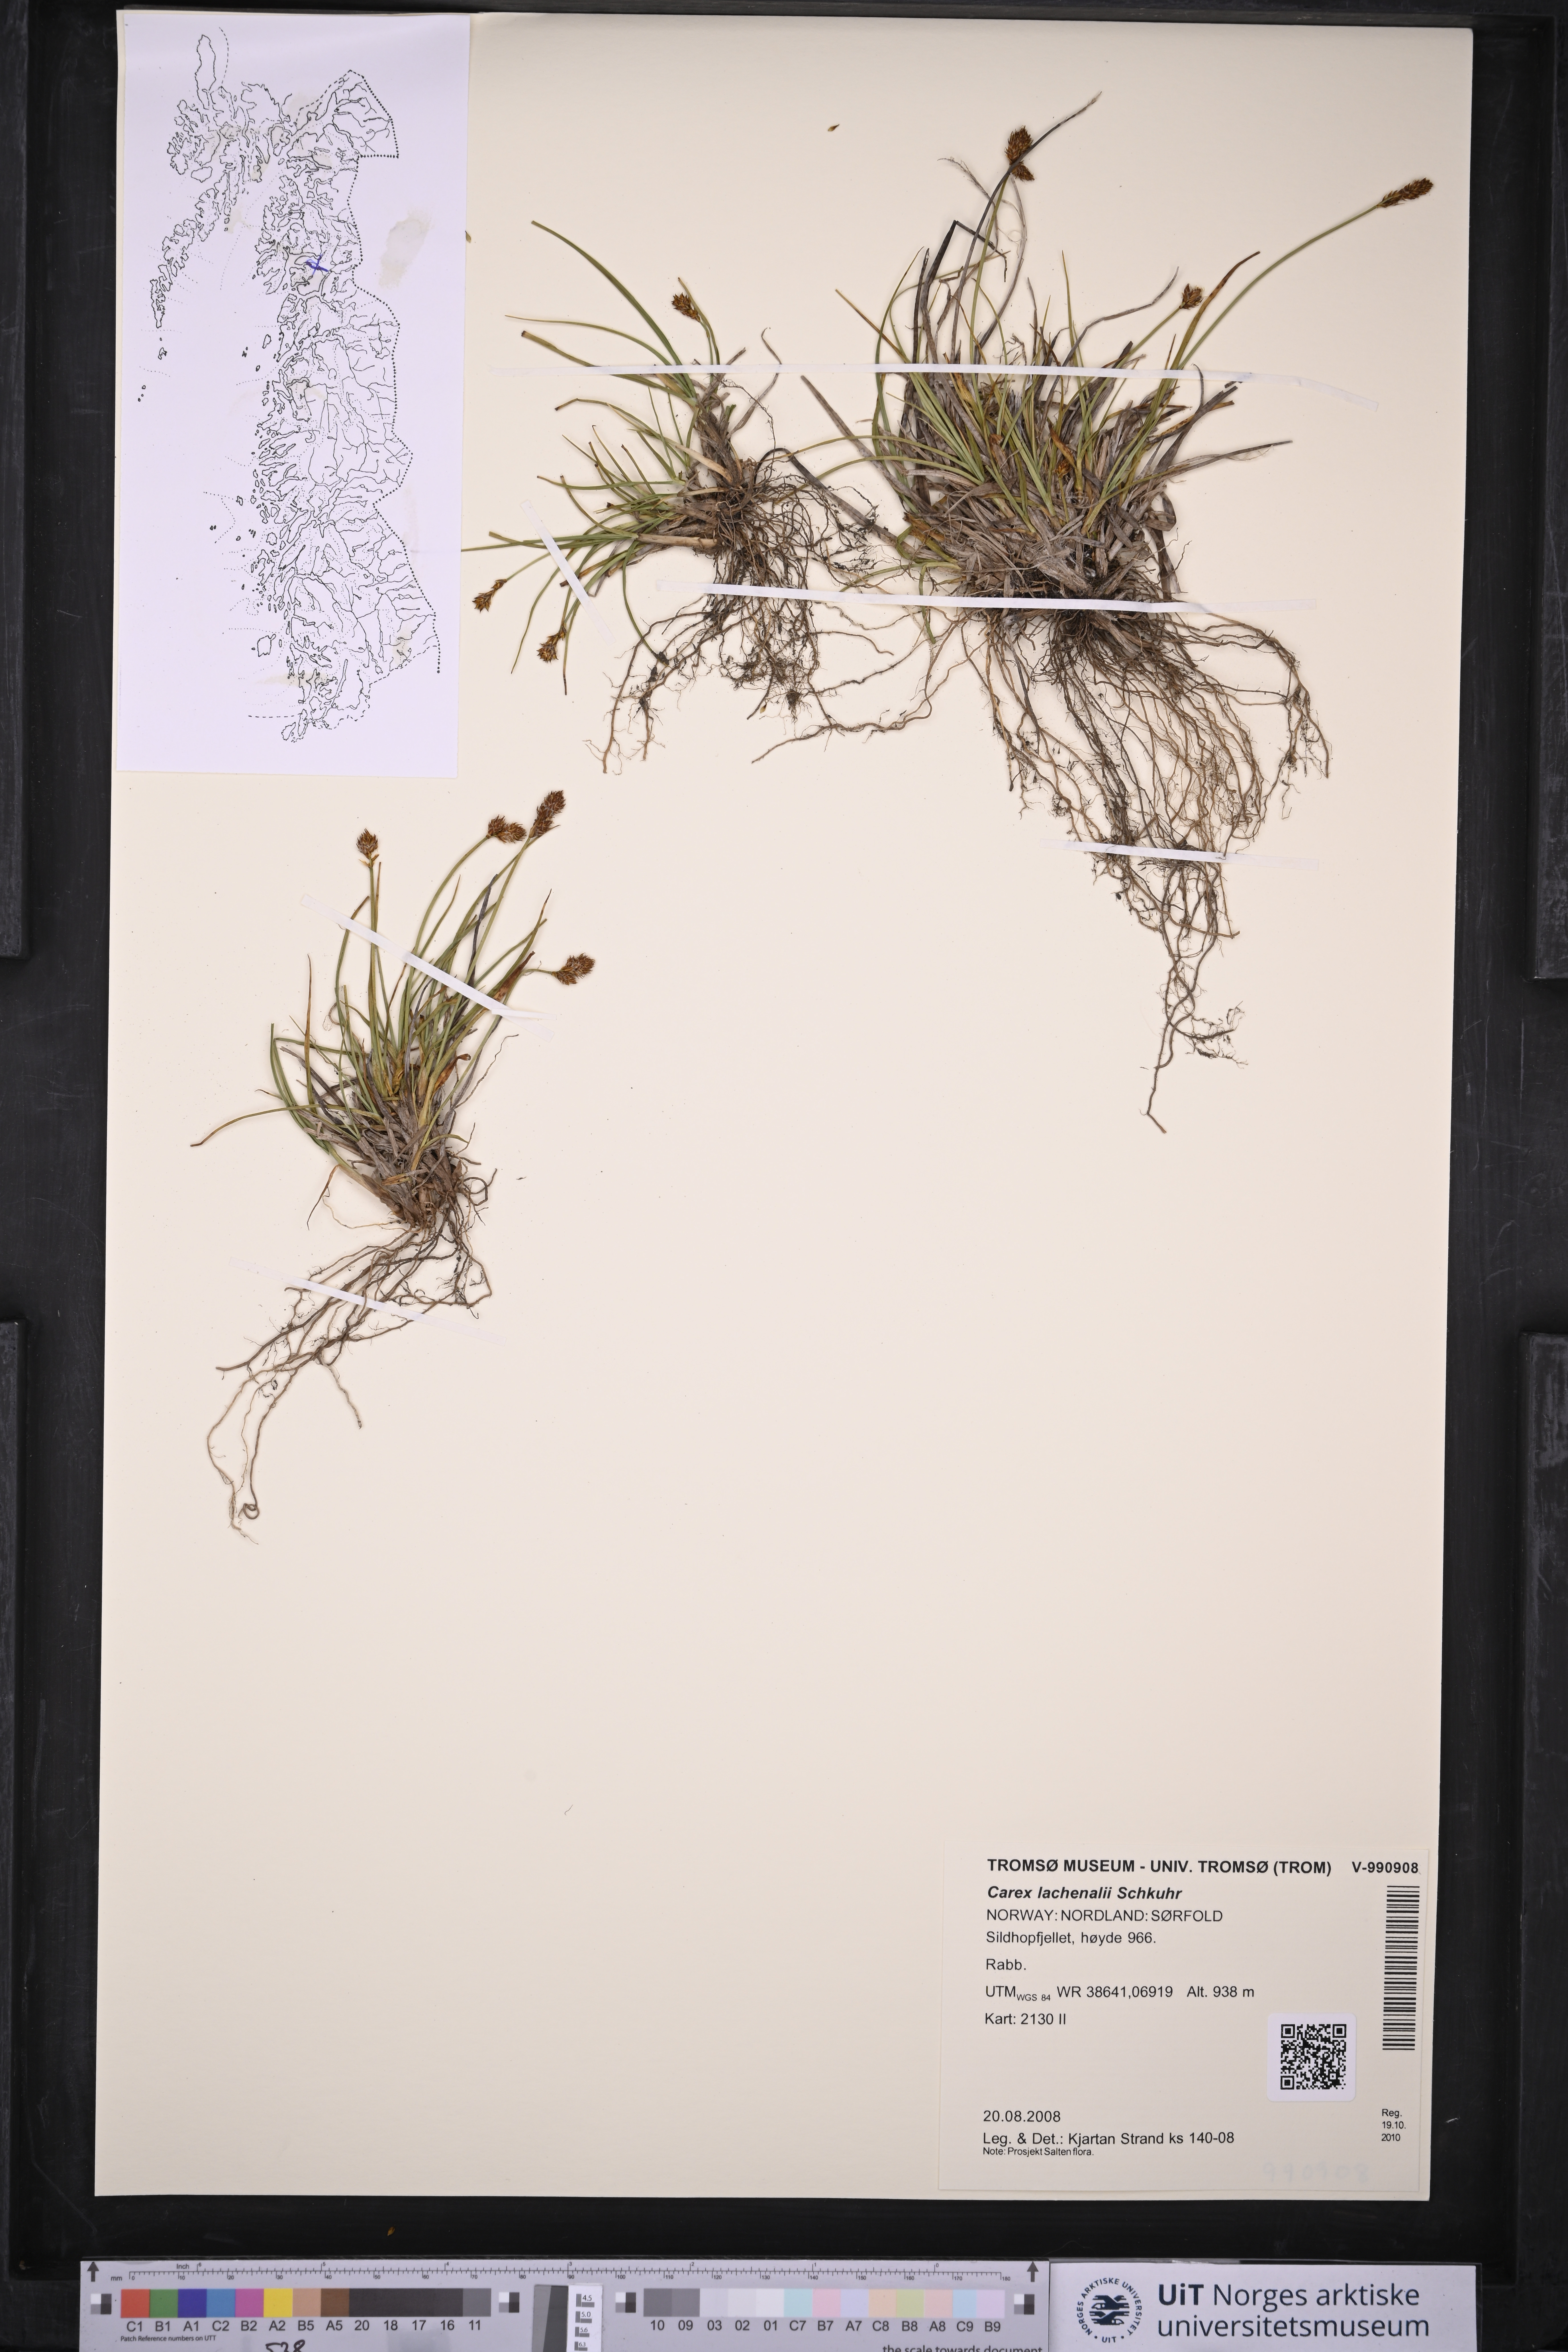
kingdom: Plantae
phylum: Tracheophyta
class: Liliopsida
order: Poales
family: Cyperaceae
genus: Carex
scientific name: Carex lachenalii
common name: Hare's-foot sedge
